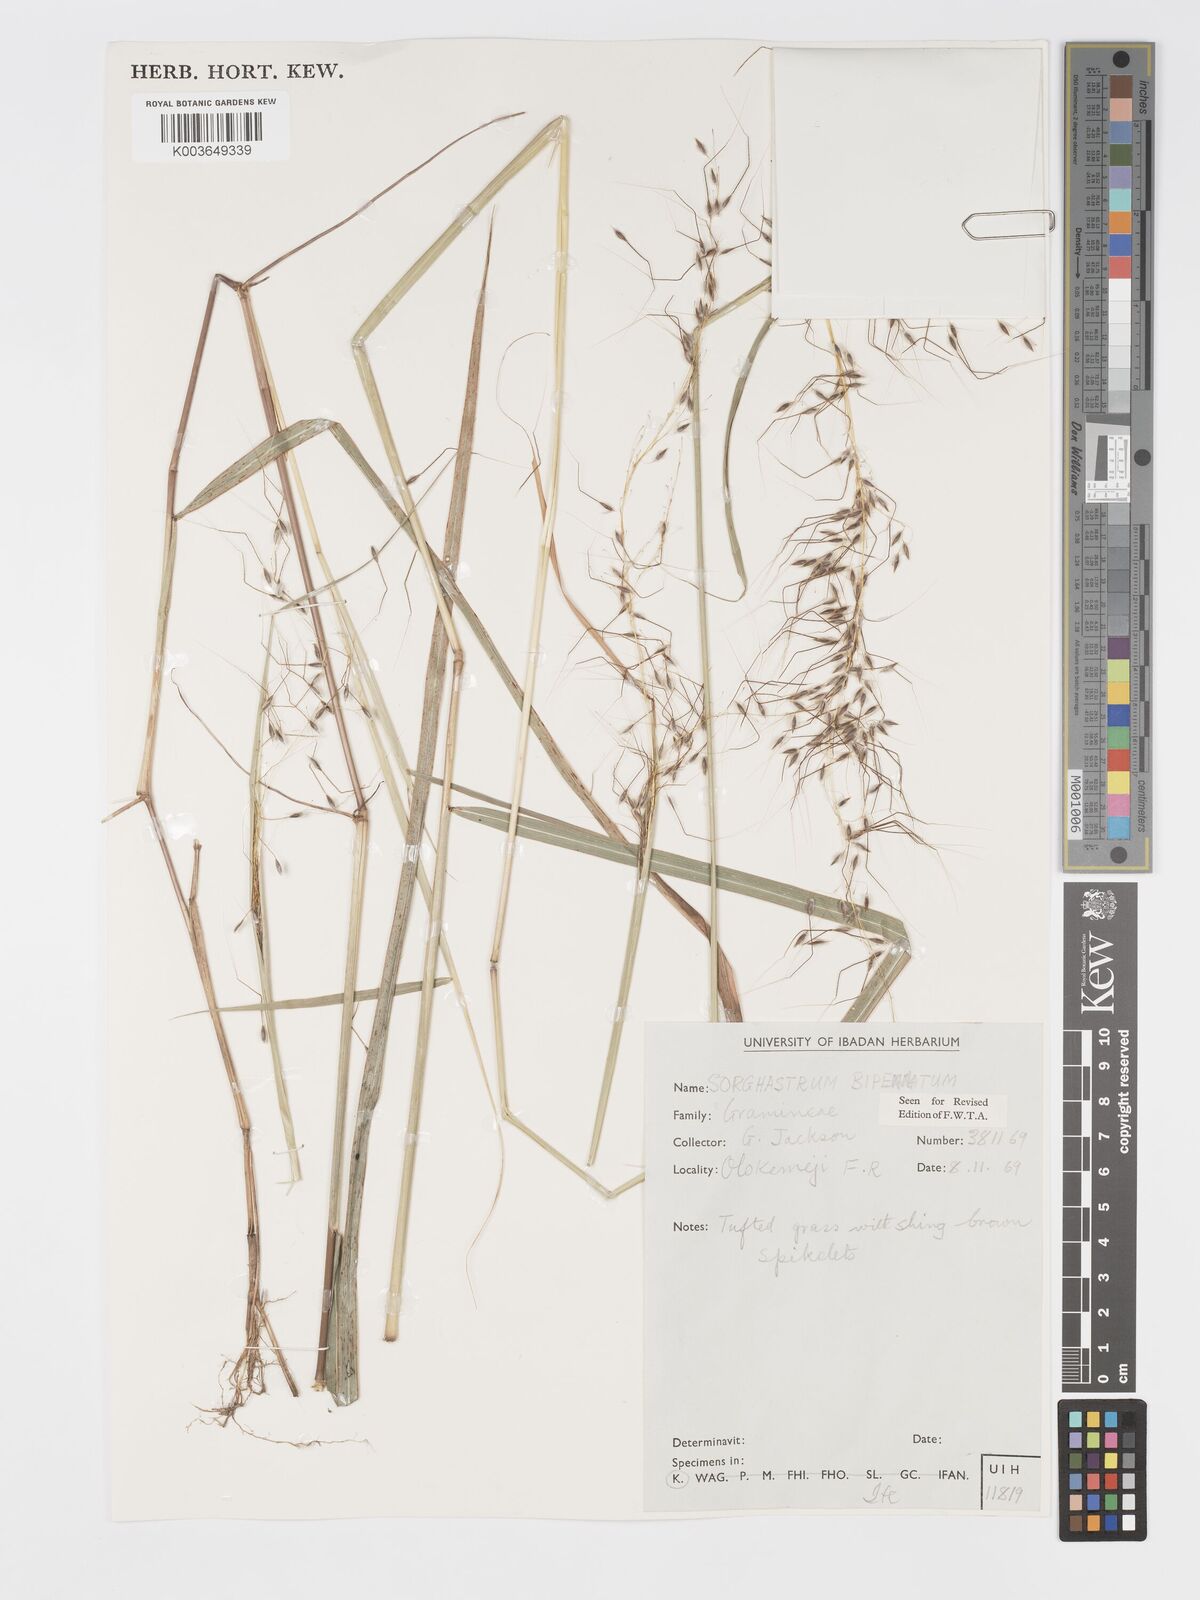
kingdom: Plantae
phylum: Tracheophyta
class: Liliopsida
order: Poales
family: Poaceae
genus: Sorghastrum
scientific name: Sorghastrum incompletum
